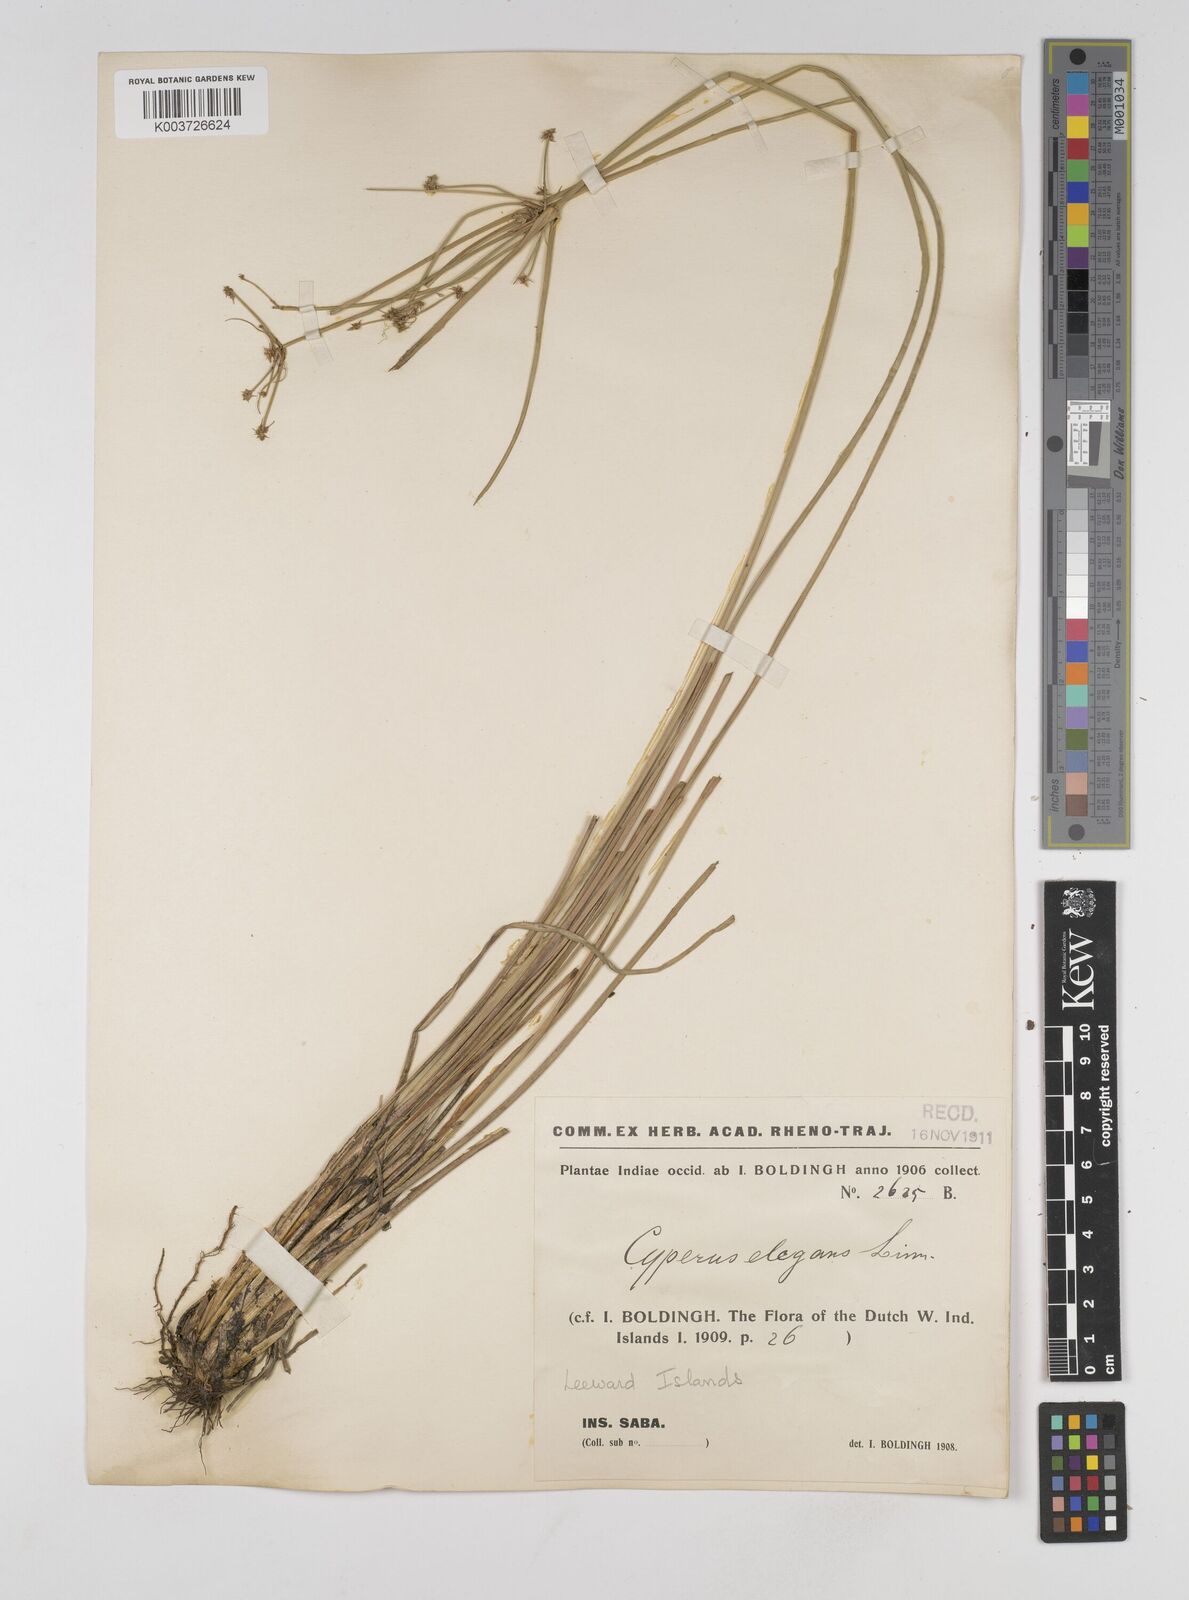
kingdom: Plantae
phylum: Tracheophyta
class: Liliopsida
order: Poales
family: Cyperaceae
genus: Cyperus
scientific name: Cyperus elegans
